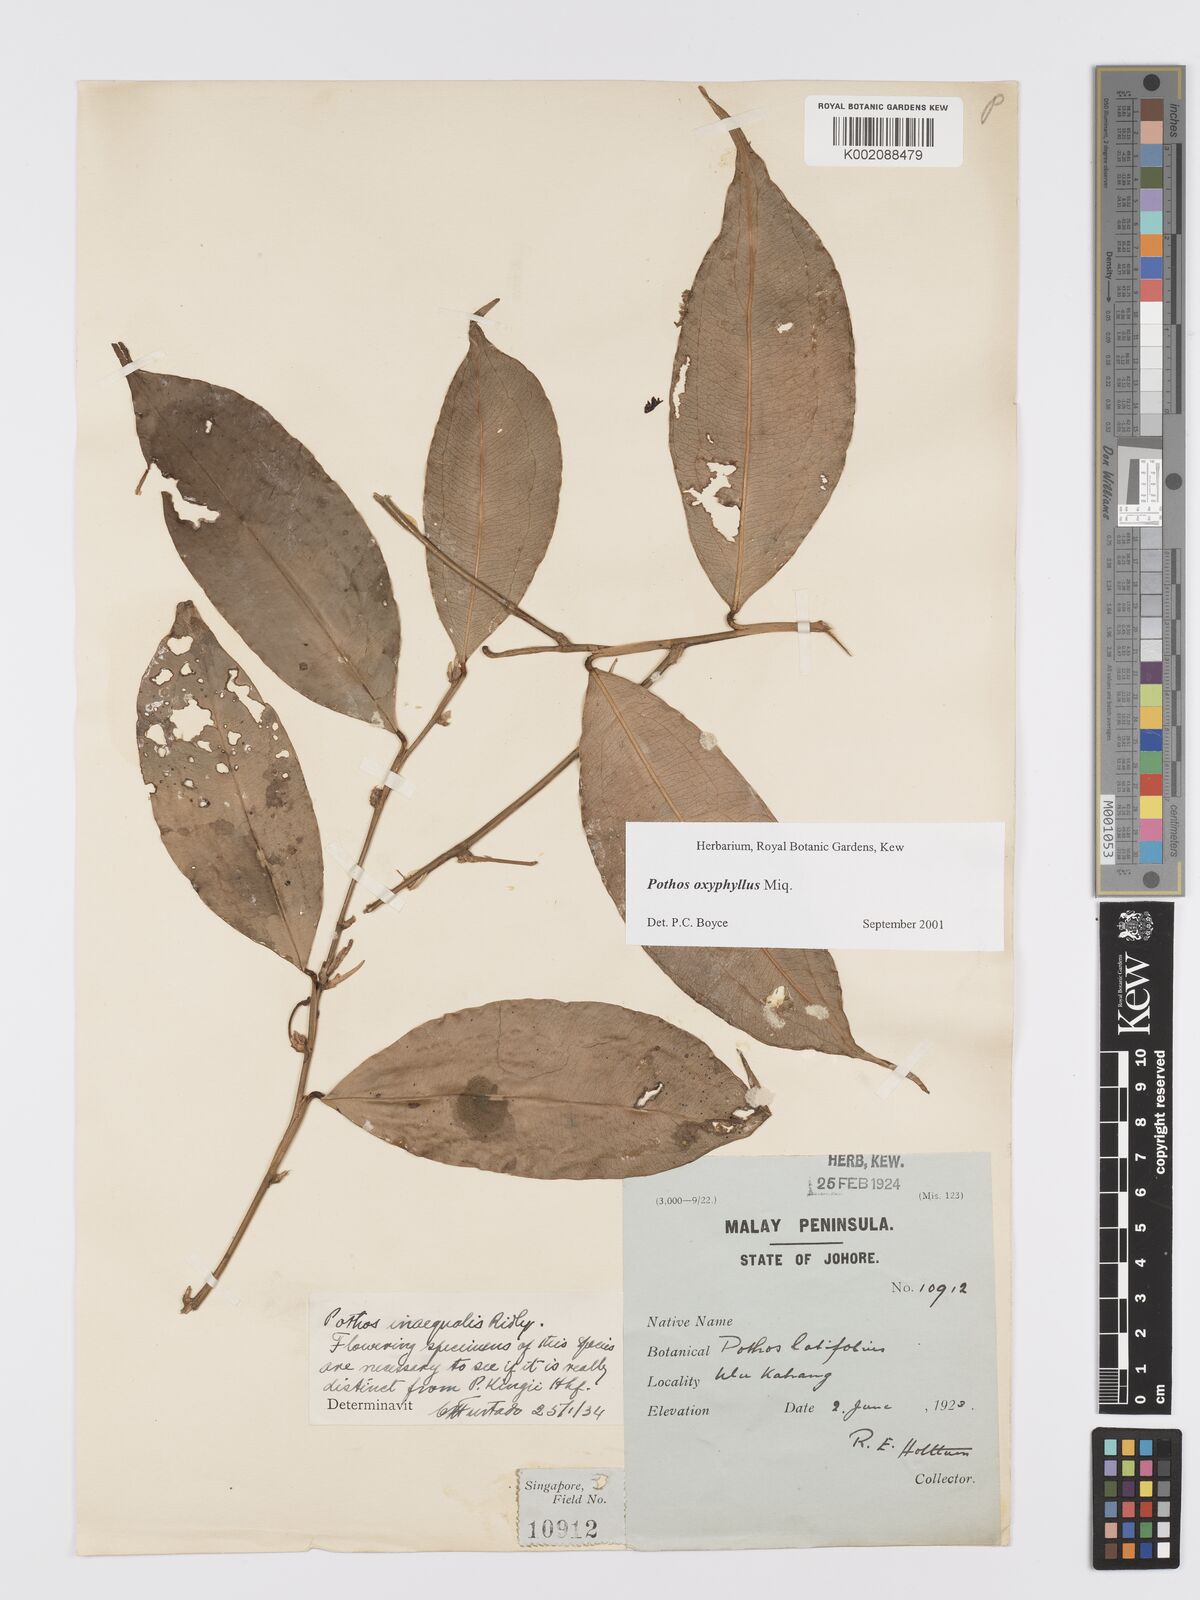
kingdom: Plantae
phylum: Tracheophyta
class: Liliopsida
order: Alismatales
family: Araceae
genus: Pothos
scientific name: Pothos oxyphyllus
